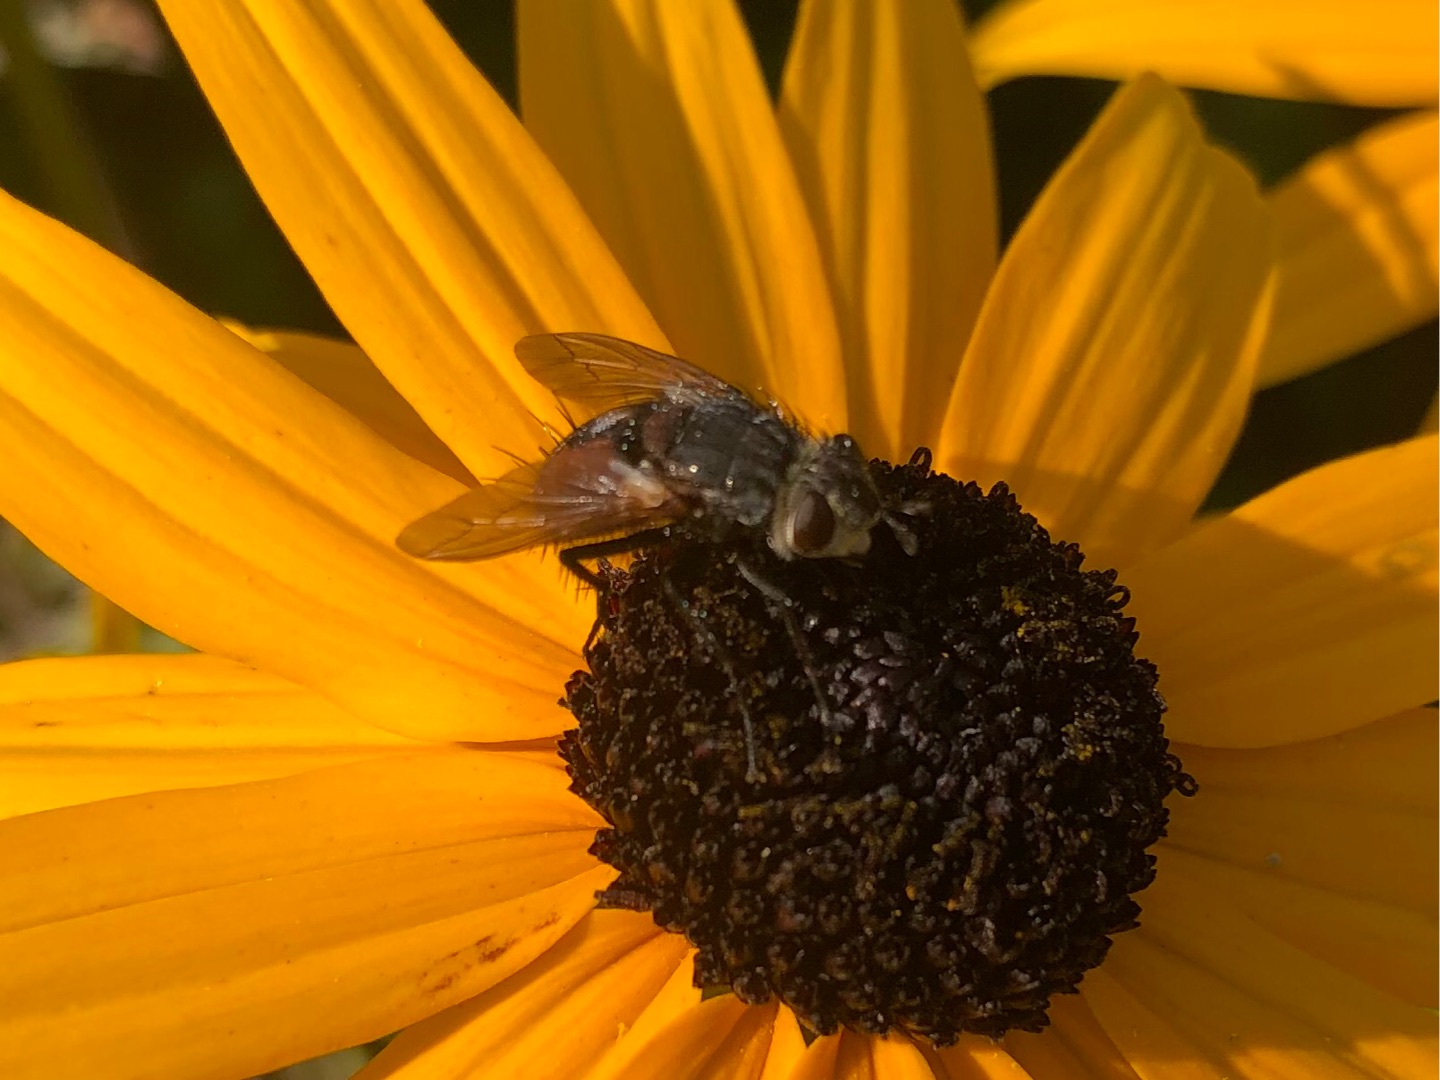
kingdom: Animalia
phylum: Arthropoda
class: Insecta
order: Diptera
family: Tachinidae
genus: Peleteria
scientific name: Peleteria rubescens
